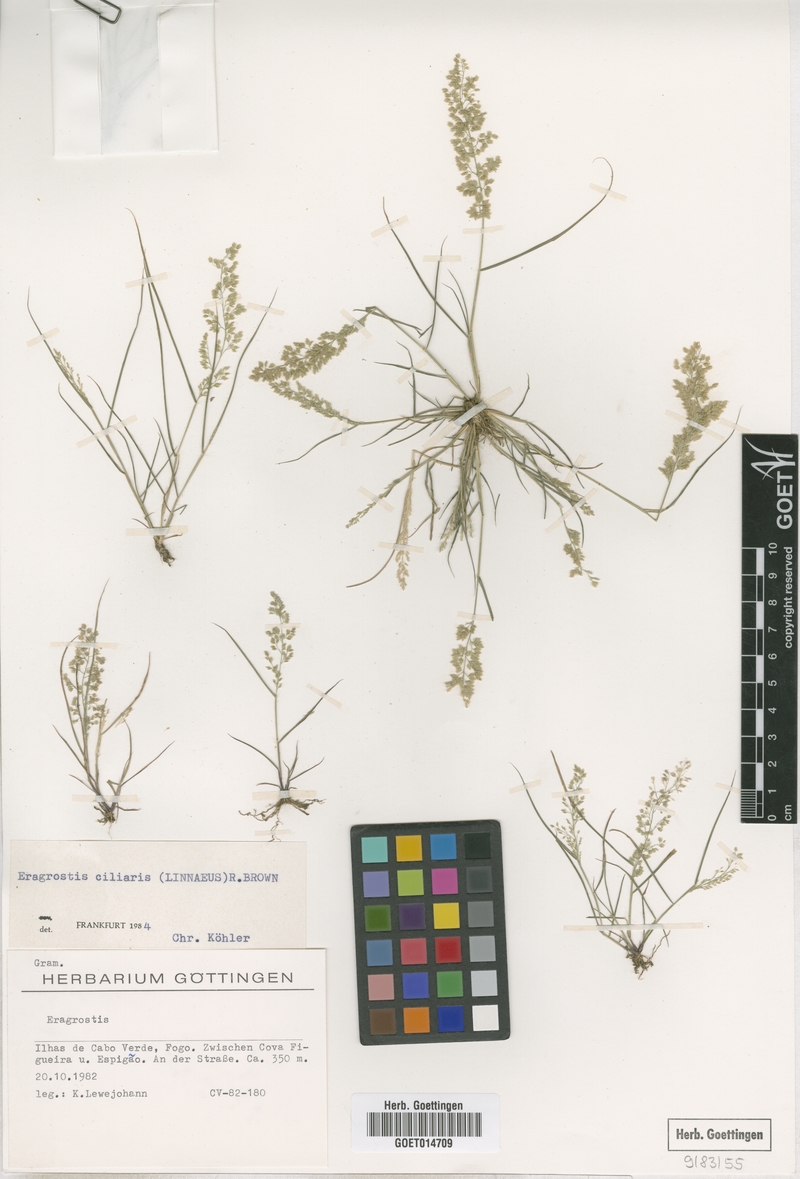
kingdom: Plantae
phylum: Tracheophyta
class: Liliopsida
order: Poales
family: Poaceae
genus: Eragrostis
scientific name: Eragrostis ciliaris
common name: Gophertail lovegrass
